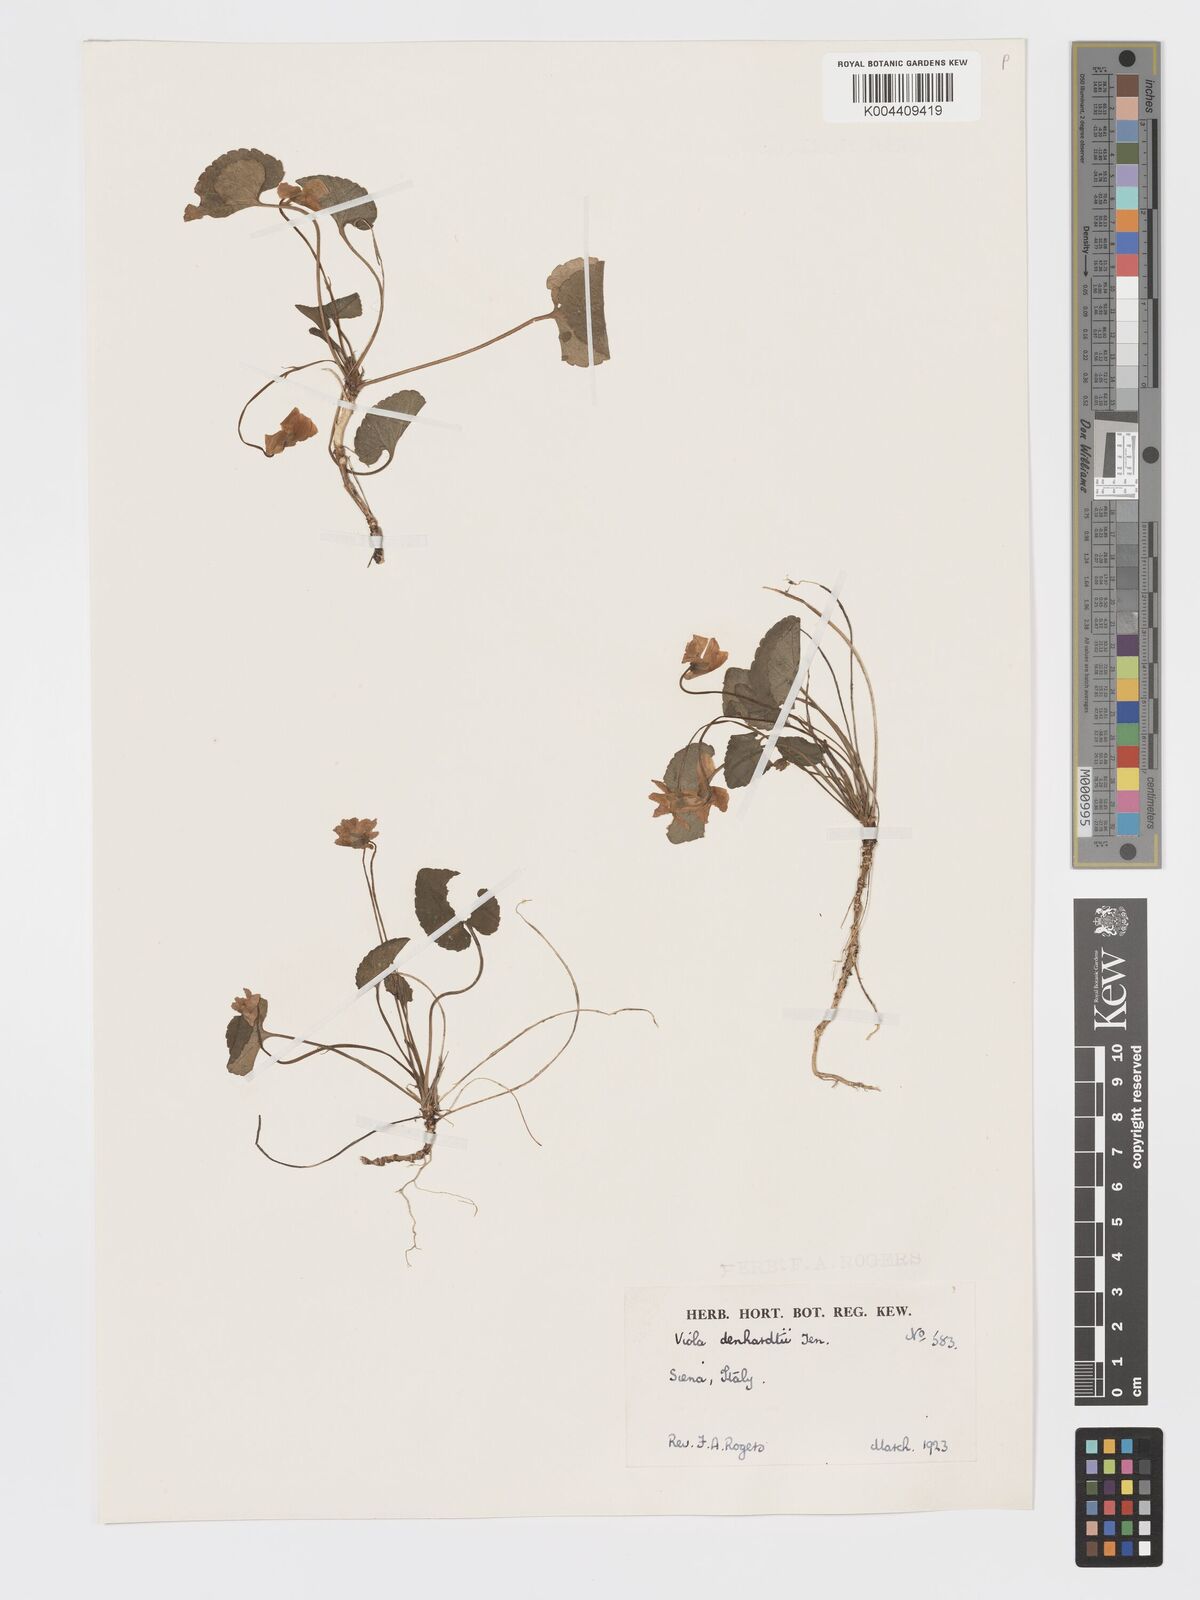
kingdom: Plantae
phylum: Tracheophyta
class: Magnoliopsida
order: Malpighiales
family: Violaceae
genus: Viola
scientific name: Viola alba
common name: White violet
